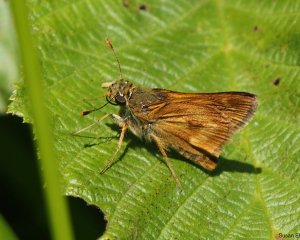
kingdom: Animalia
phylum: Arthropoda
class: Insecta
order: Lepidoptera
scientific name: Lepidoptera
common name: Butterflies
